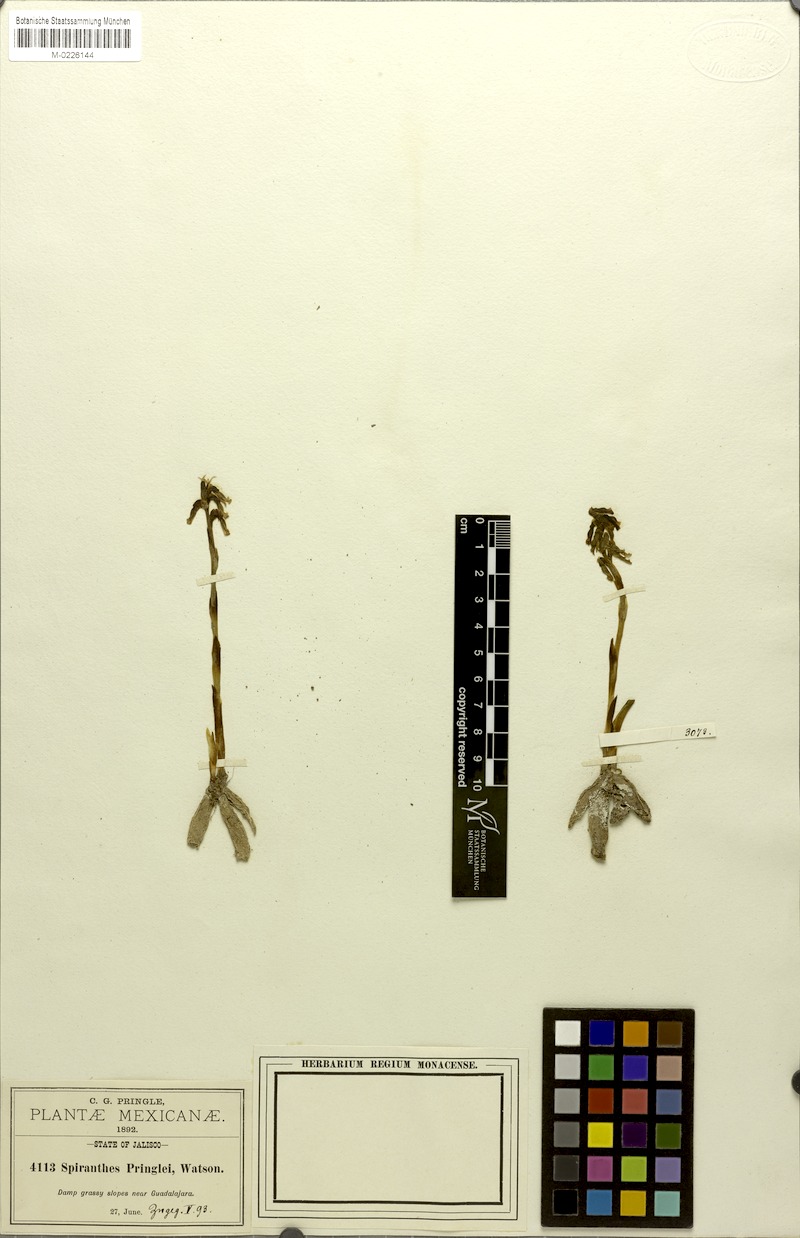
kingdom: Plantae
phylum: Tracheophyta
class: Liliopsida
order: Asparagales
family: Orchidaceae
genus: Cyclopogon
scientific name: Cyclopogon pringlei
